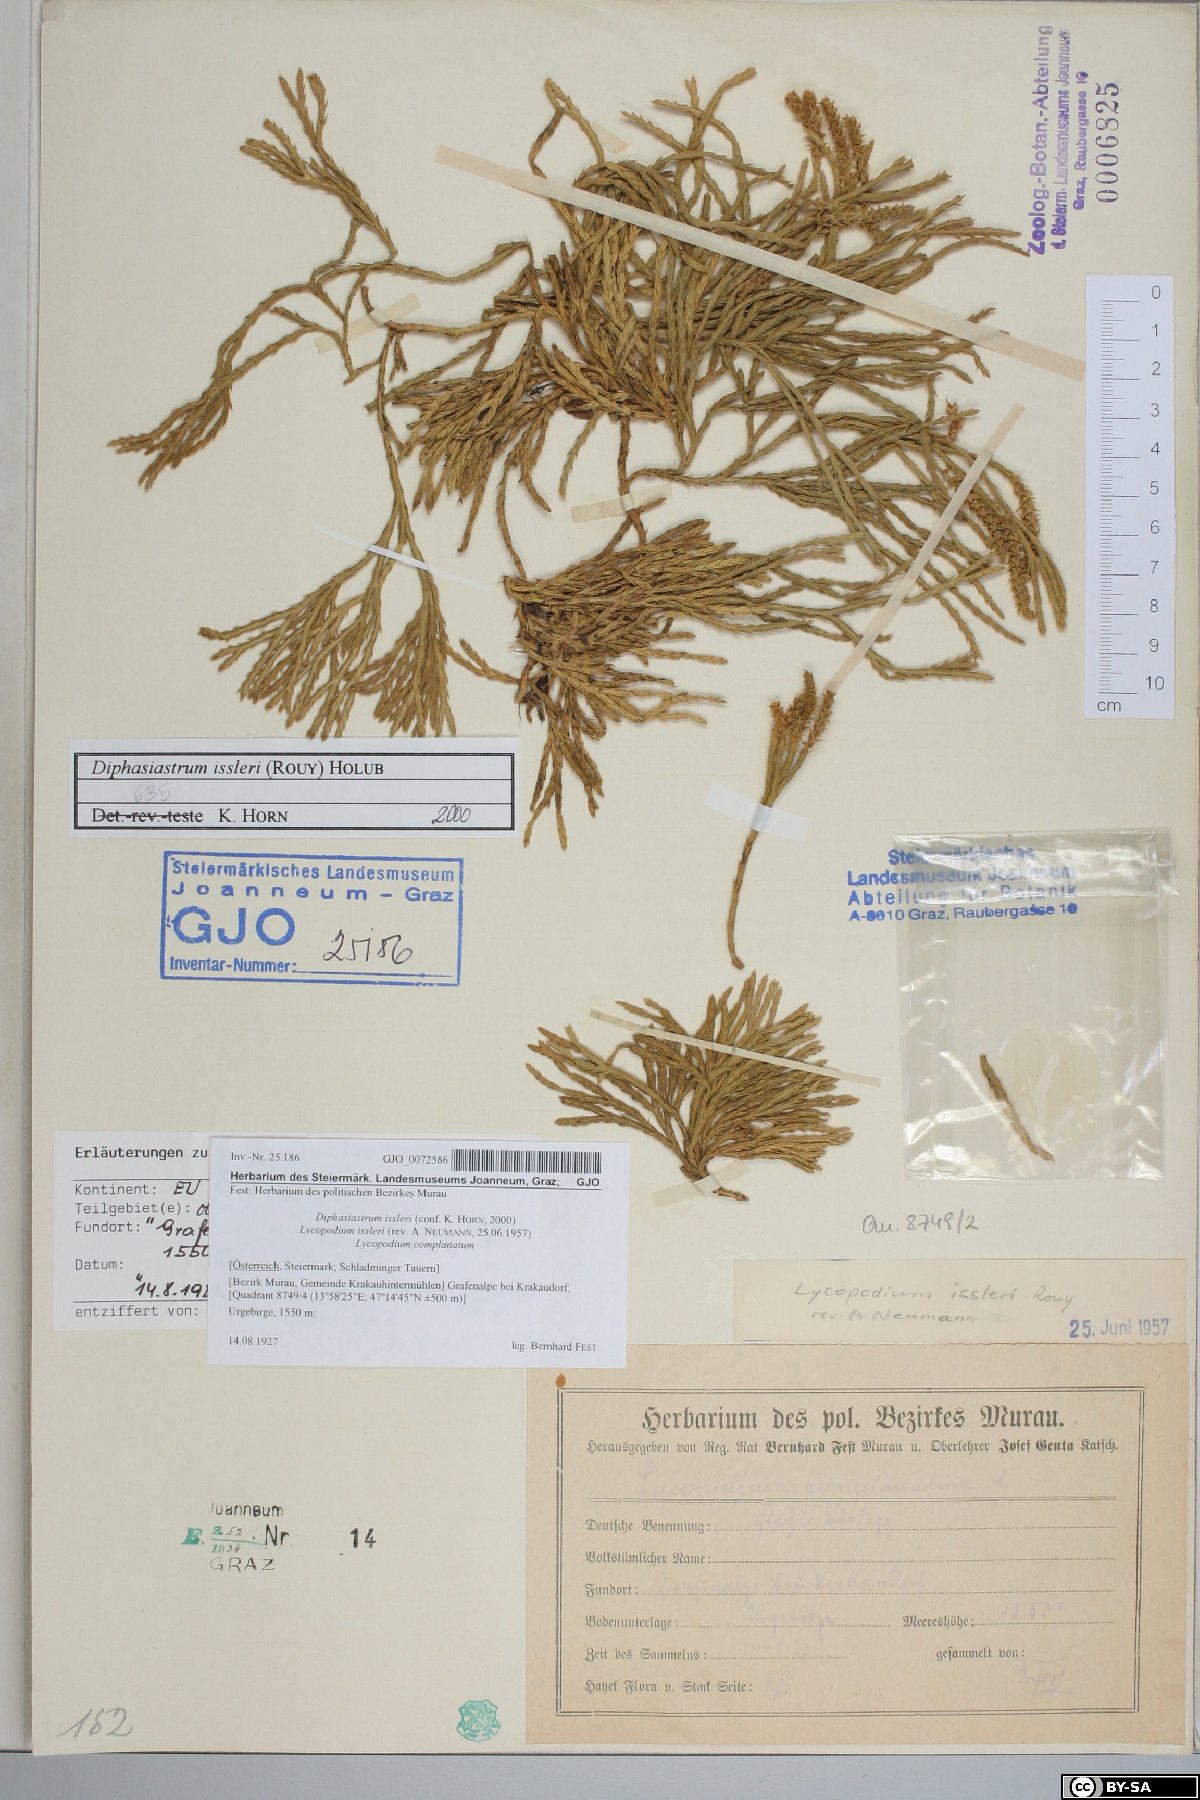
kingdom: Plantae
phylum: Tracheophyta
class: Lycopodiopsida
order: Lycopodiales
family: Lycopodiaceae
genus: Diphasiastrum
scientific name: Diphasiastrum issleri
